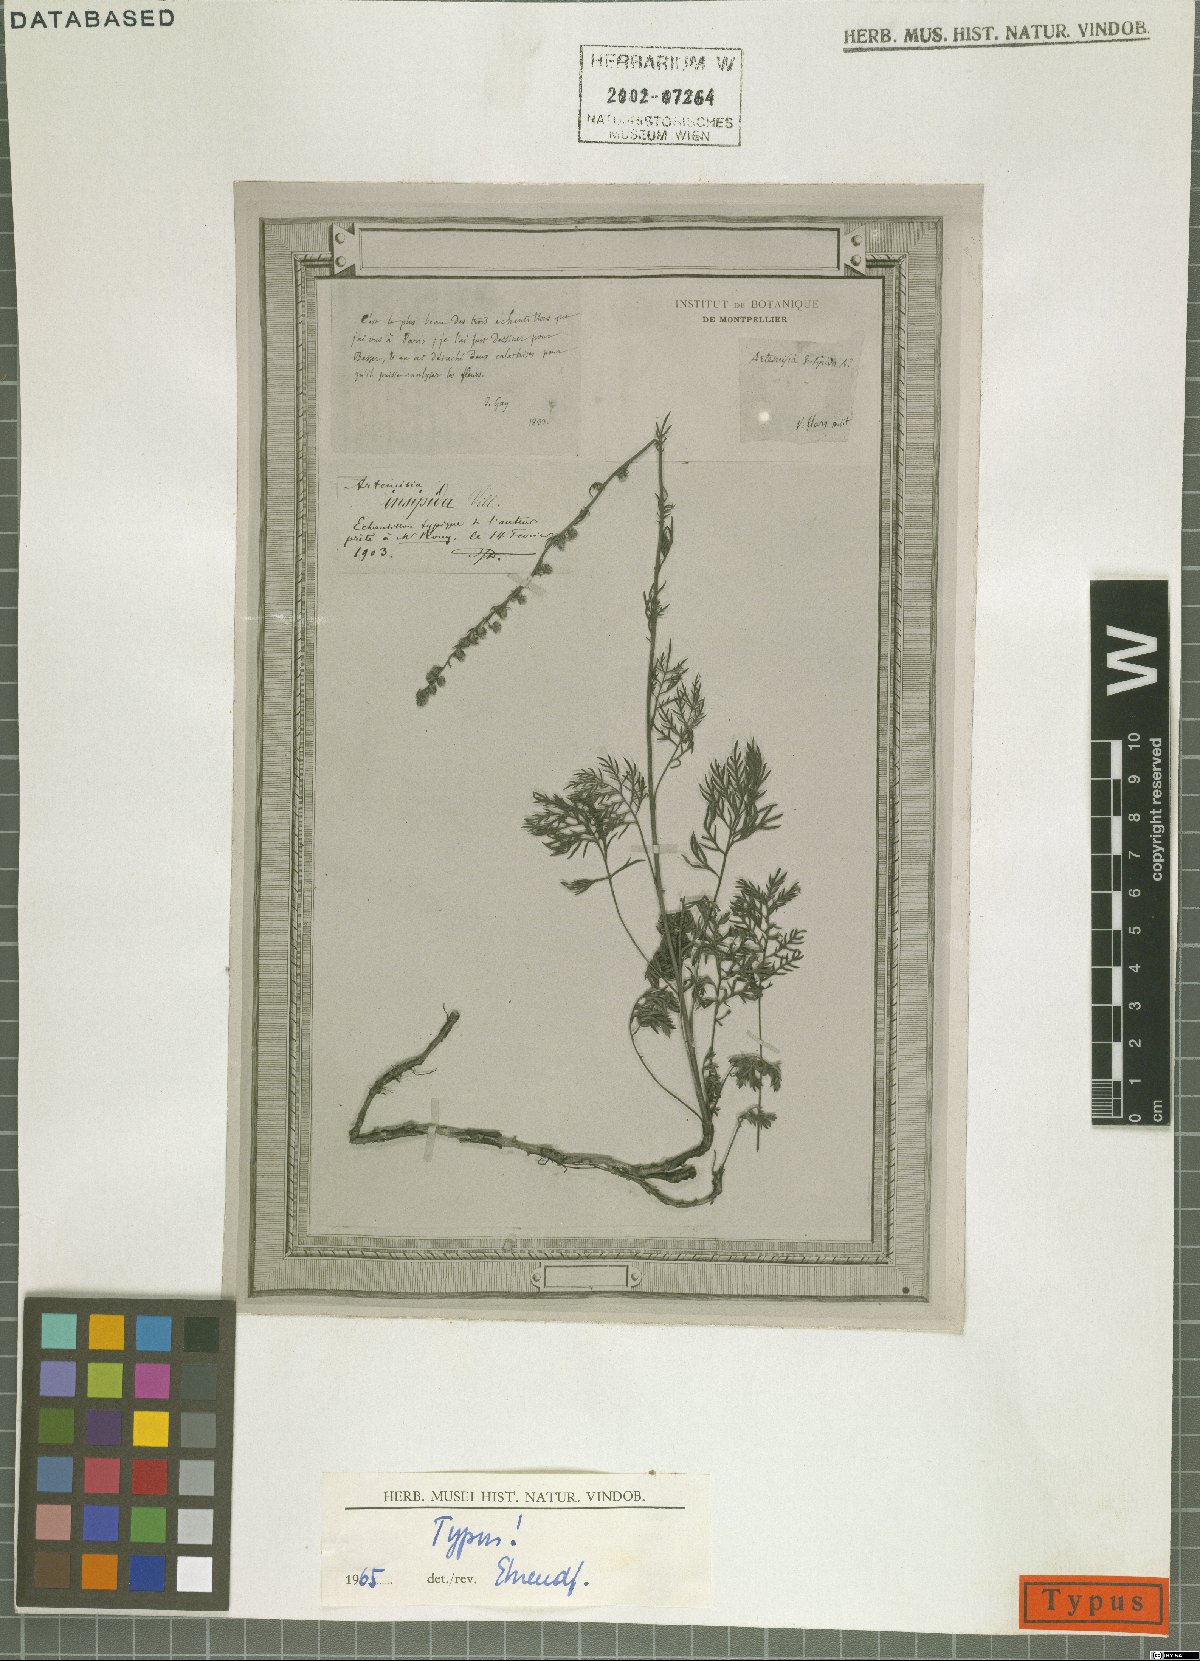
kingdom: Plantae
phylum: Tracheophyta
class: Magnoliopsida
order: Asterales
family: Asteraceae
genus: Artemisia
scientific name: Artemisia insipida
